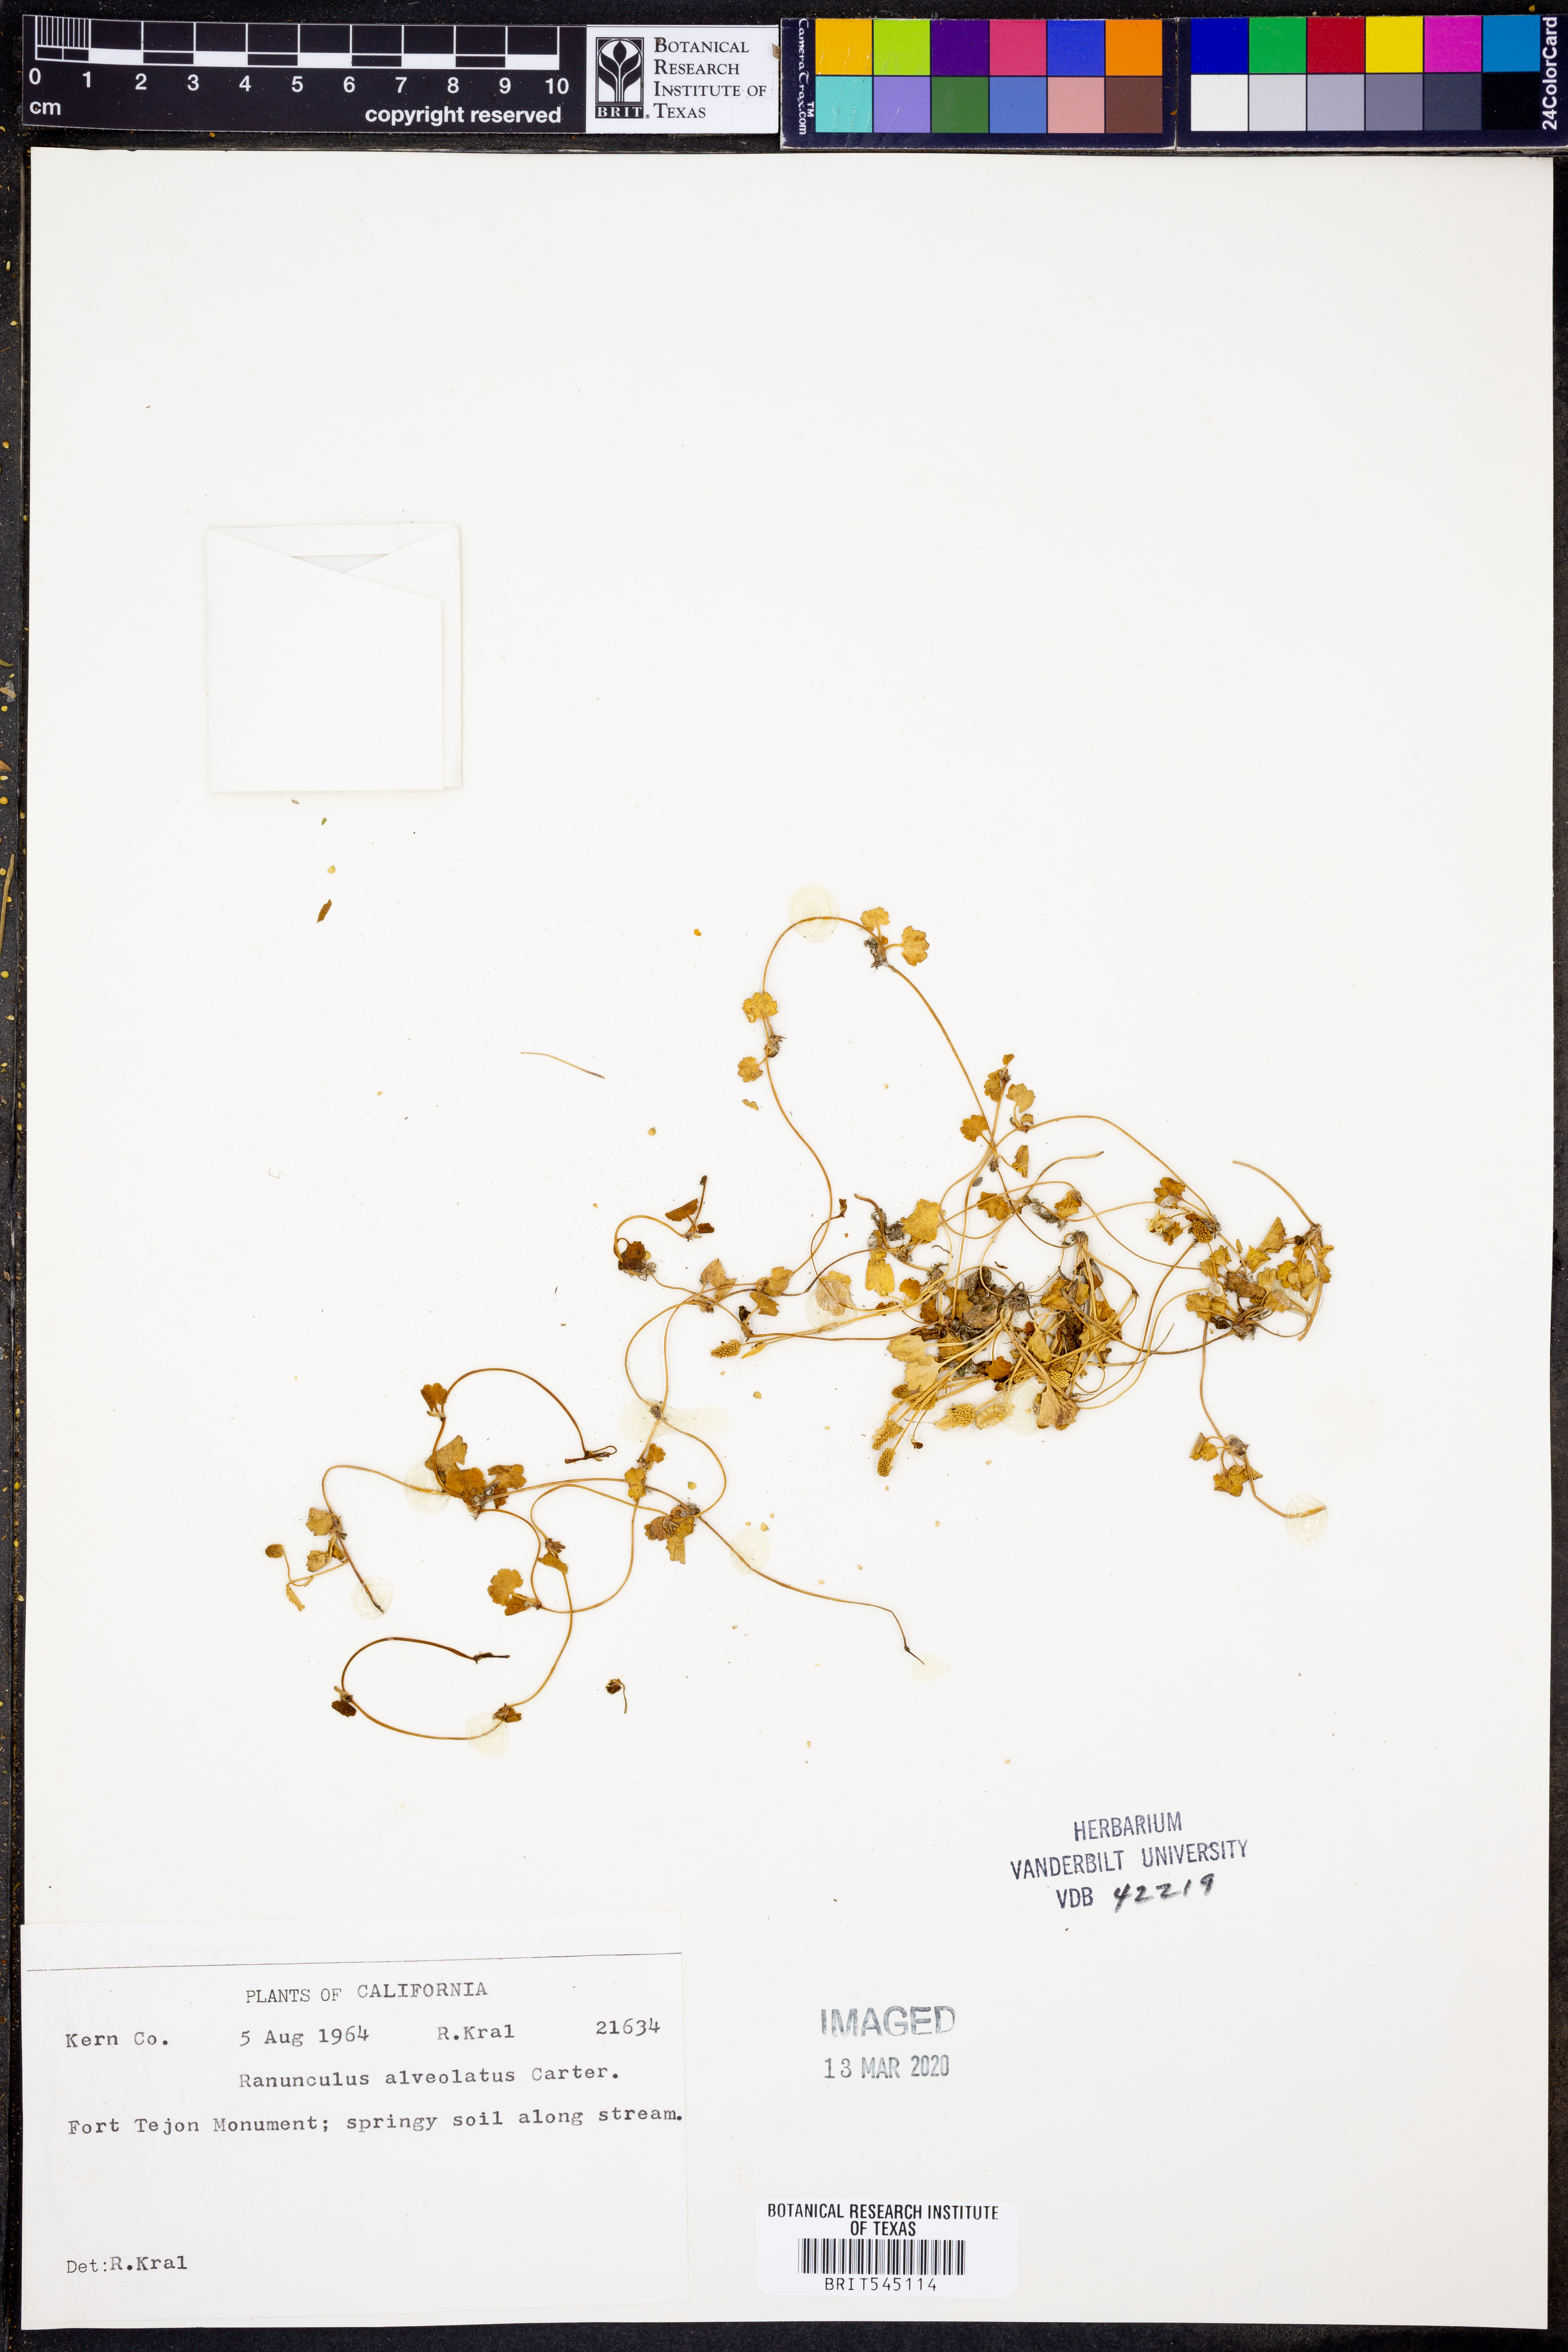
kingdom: Plantae
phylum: Tracheophyta
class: Magnoliopsida
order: Ranunculales
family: Ranunculaceae
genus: Ranunculus
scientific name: Ranunculus bonariensis
